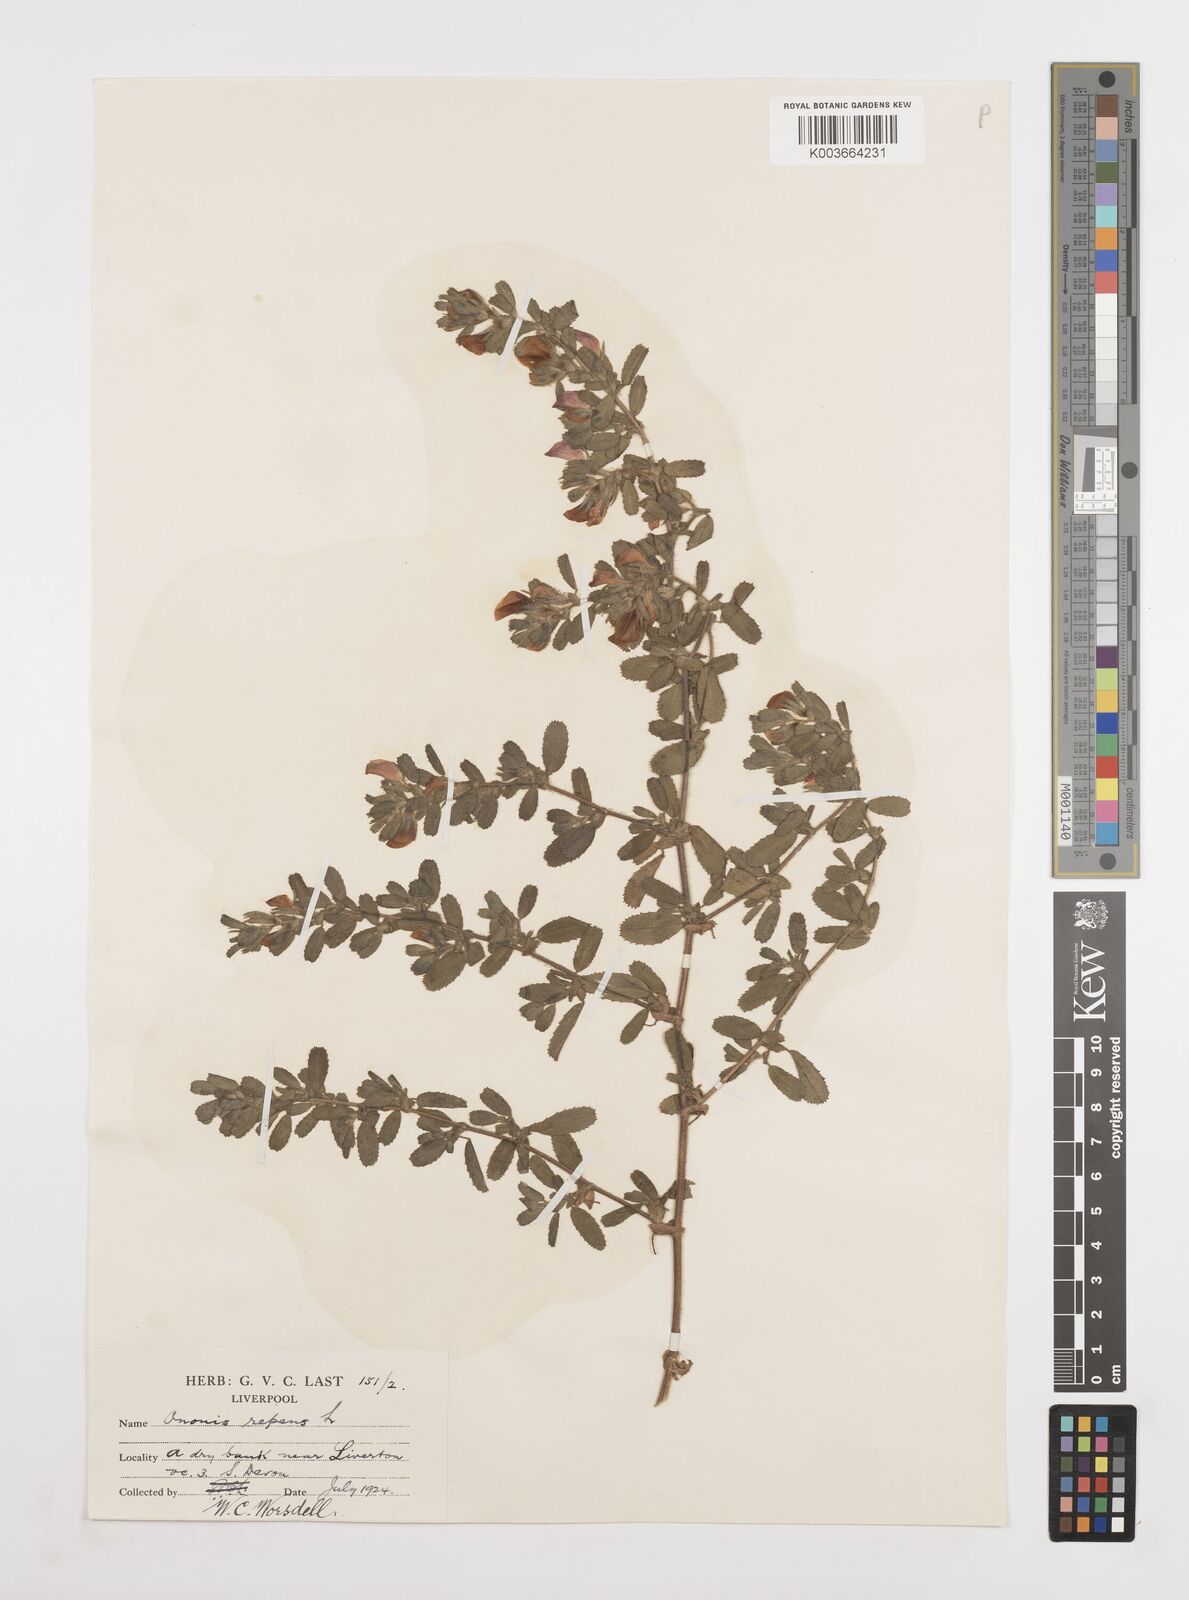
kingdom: Plantae
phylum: Tracheophyta
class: Magnoliopsida
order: Fabales
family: Fabaceae
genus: Ononis
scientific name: Ononis spinosa
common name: Spiny restharrow
